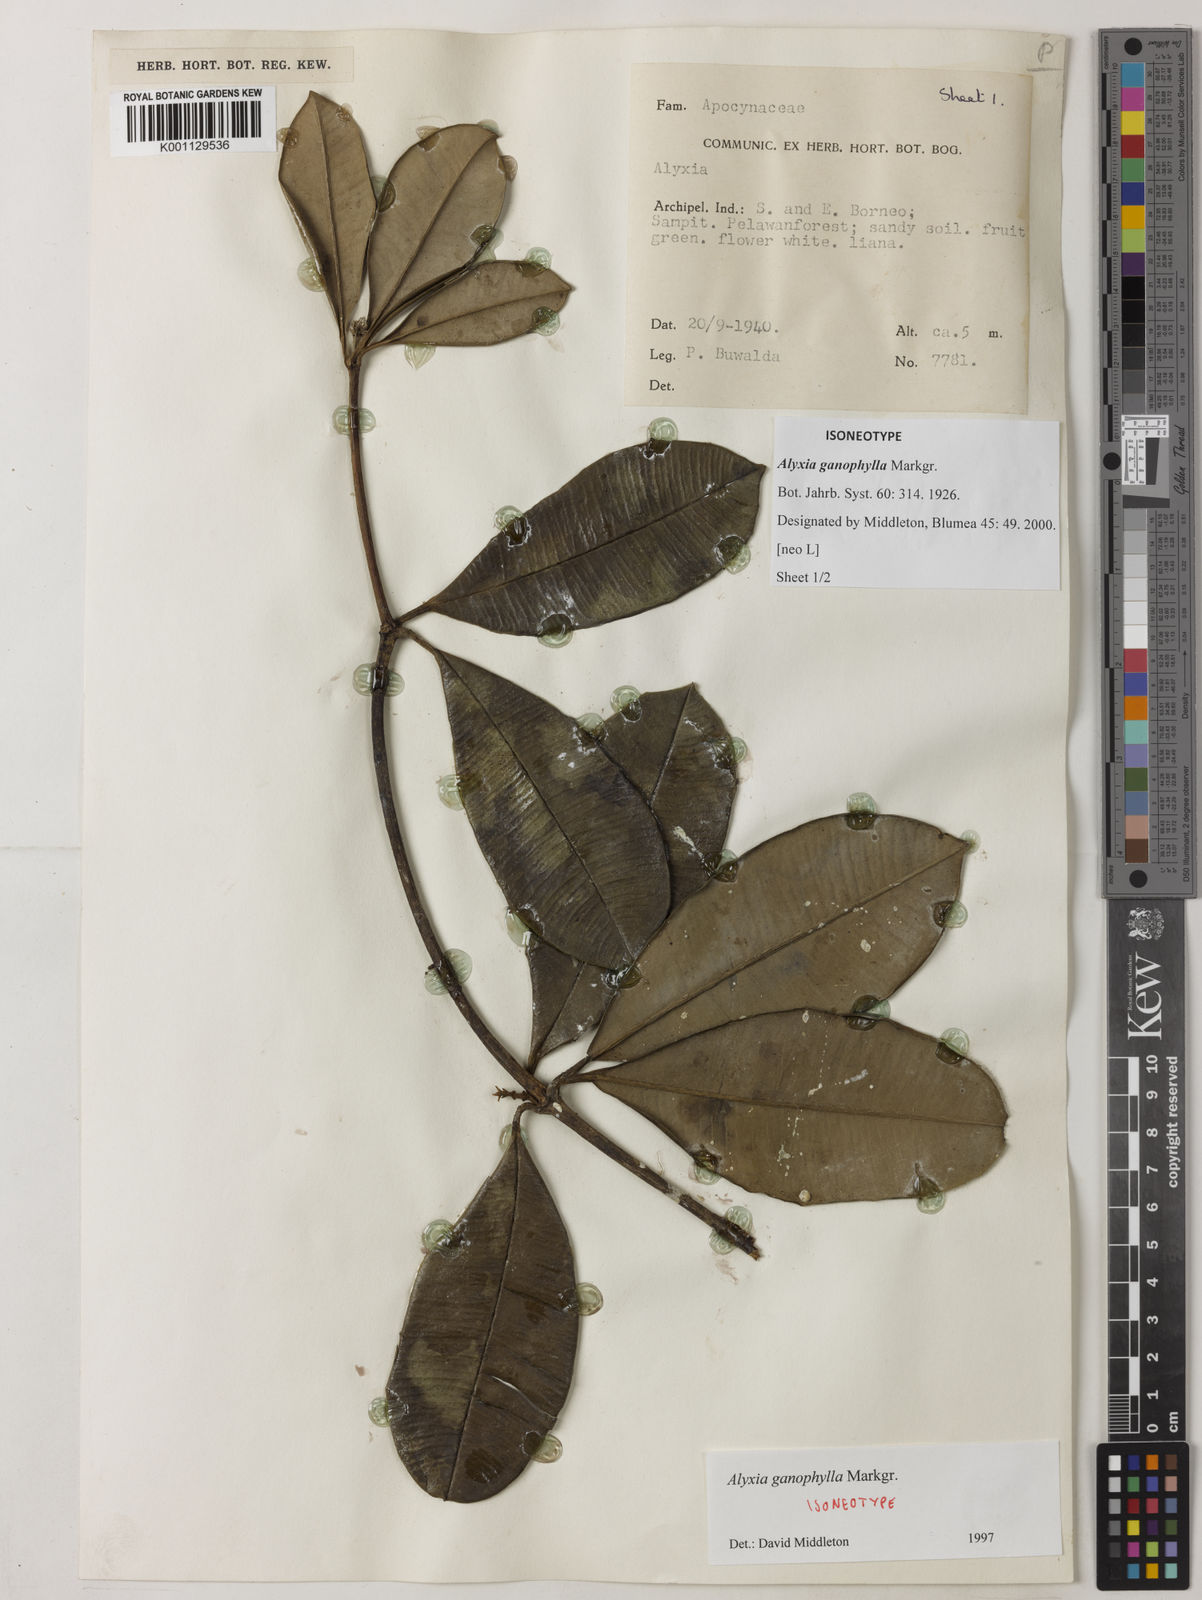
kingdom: Plantae
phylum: Tracheophyta
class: Magnoliopsida
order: Gentianales
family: Apocynaceae
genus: Alyxia
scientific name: Alyxia ganophylla
